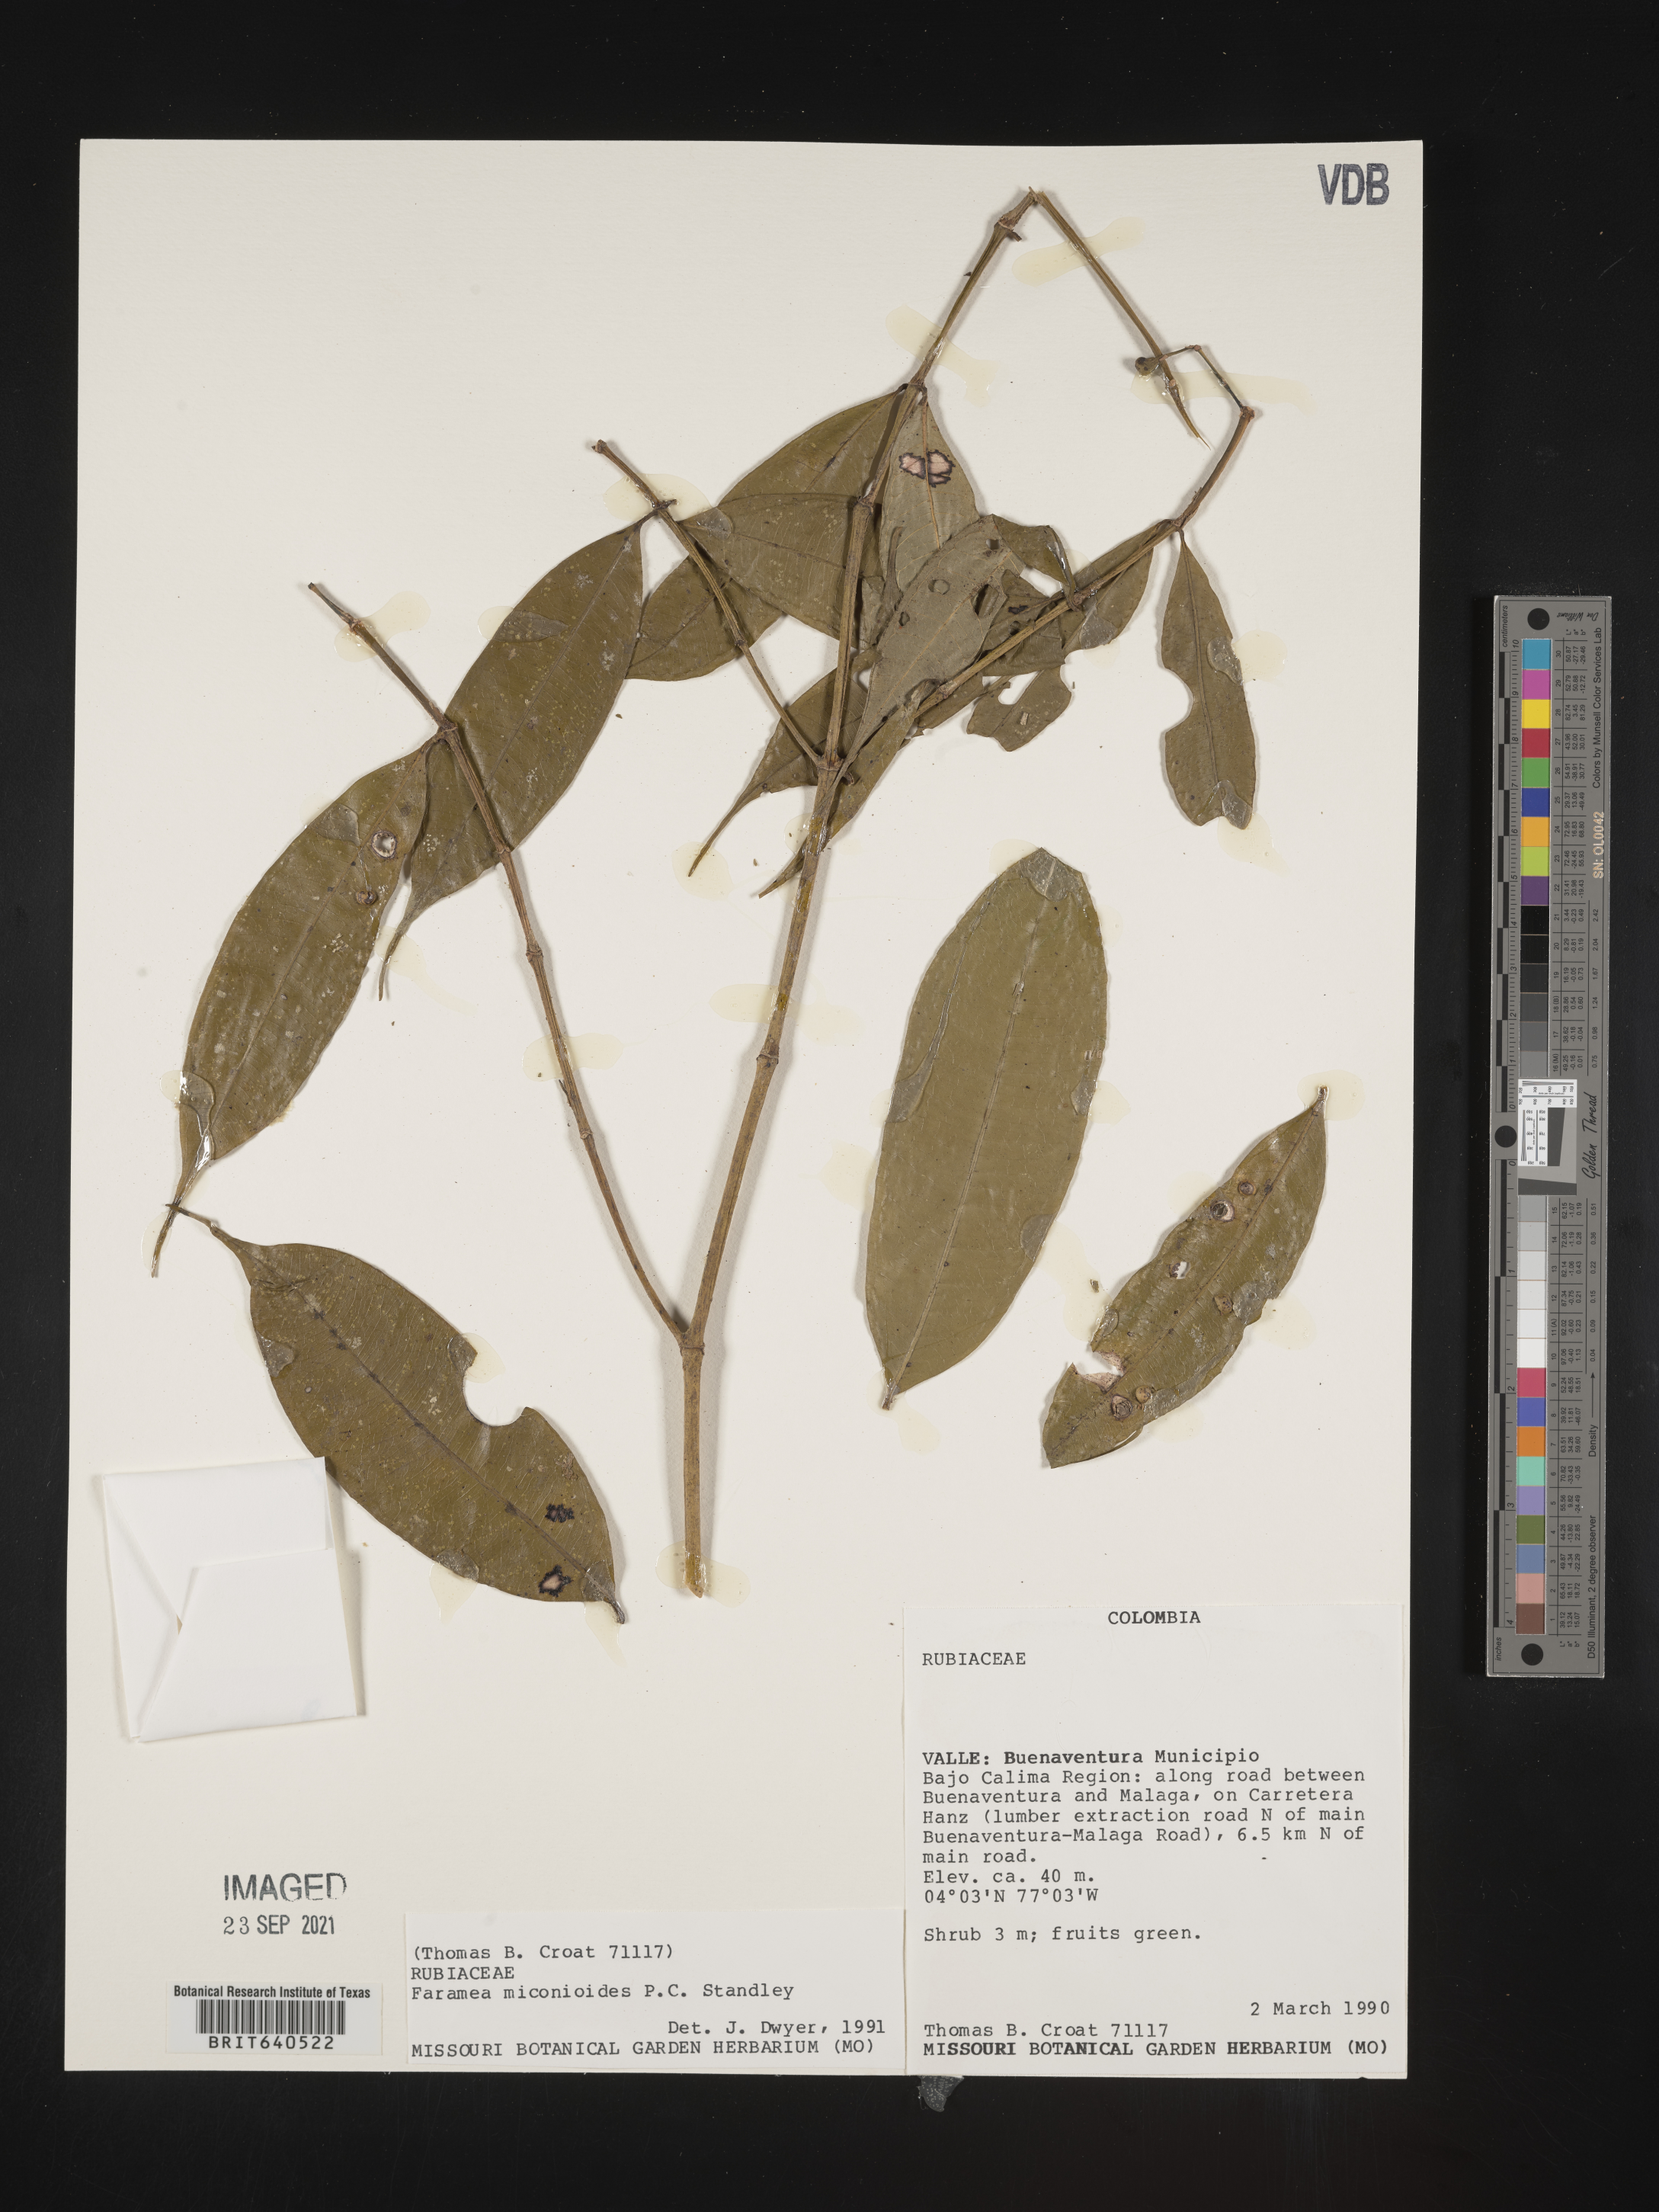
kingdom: Plantae
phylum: Tracheophyta
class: Magnoliopsida
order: Gentianales
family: Rubiaceae
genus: Faramea
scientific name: Faramea
